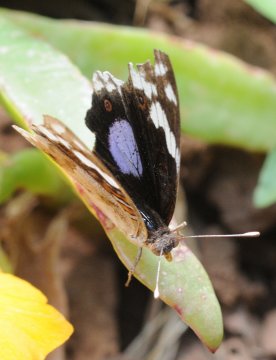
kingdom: Animalia
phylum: Arthropoda
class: Insecta
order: Lepidoptera
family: Nymphalidae
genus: Junonia
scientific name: Junonia oenone
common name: Dark blue pansy
